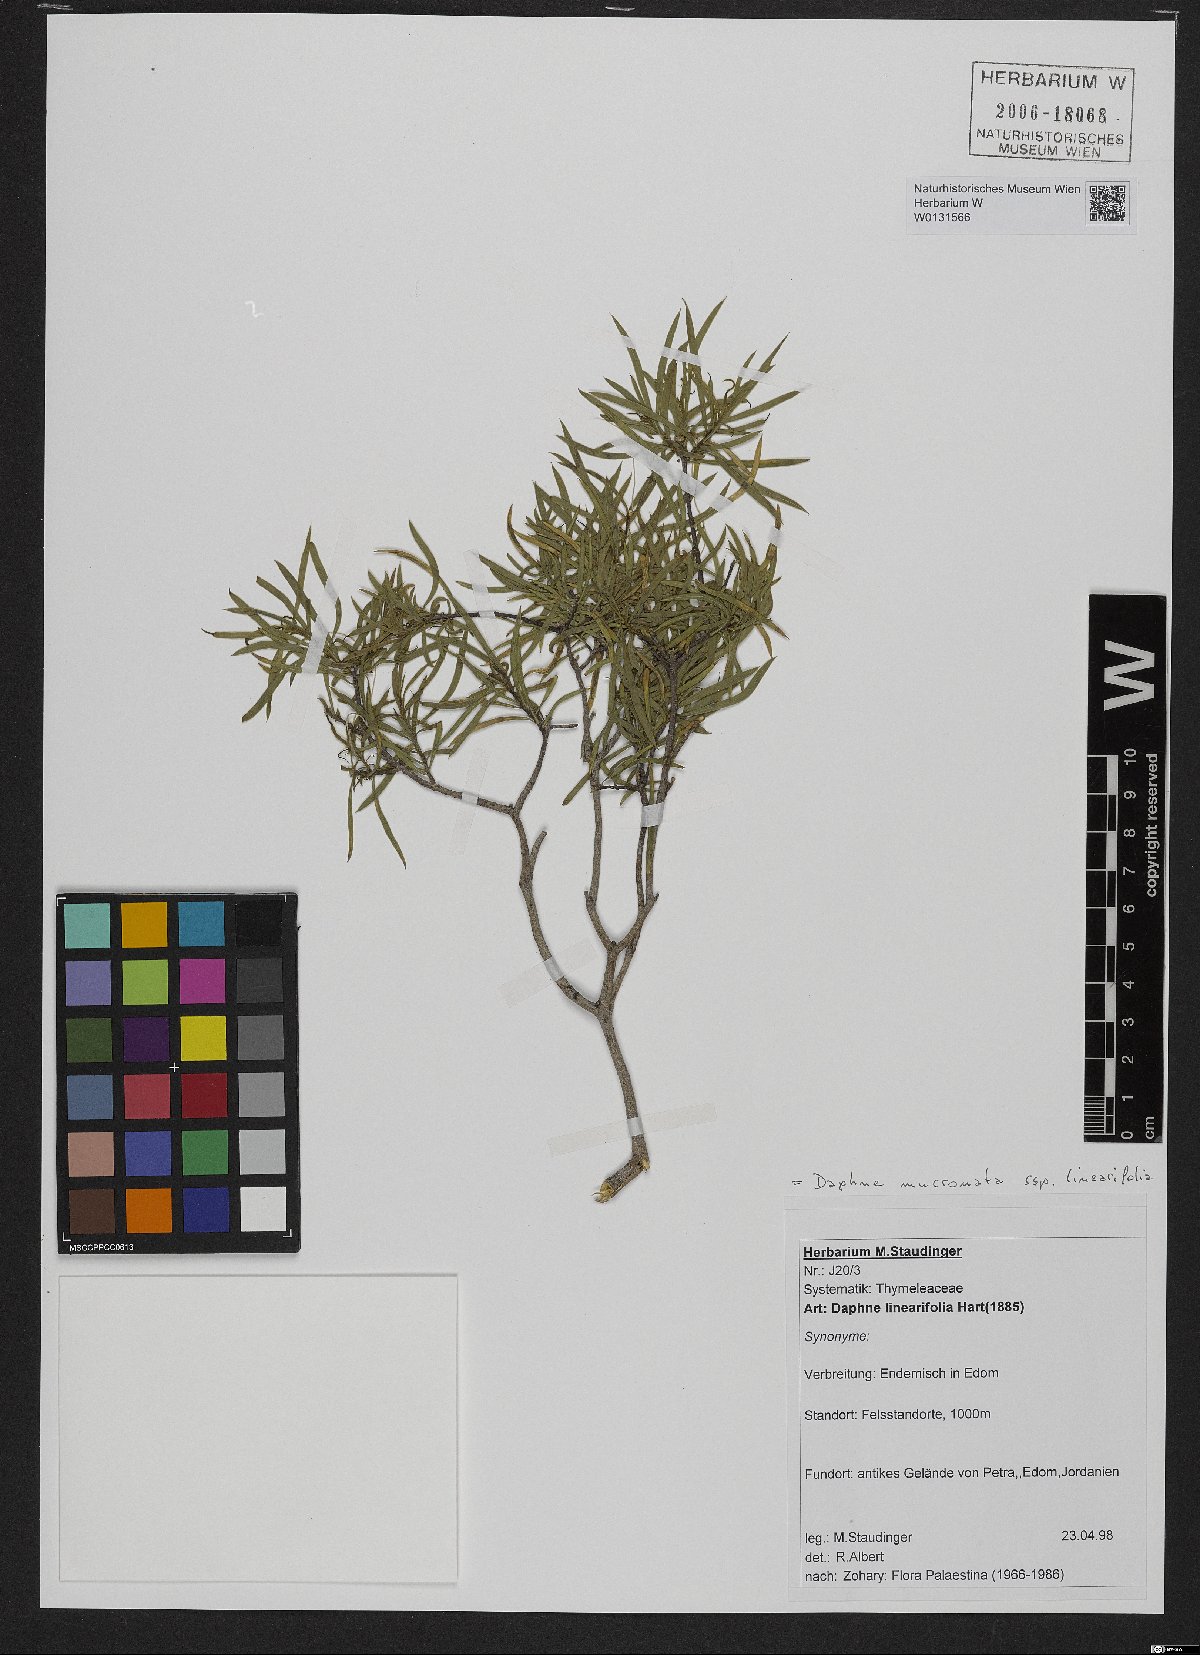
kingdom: Plantae
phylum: Tracheophyta
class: Magnoliopsida
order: Malvales
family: Thymelaeaceae
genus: Daphne
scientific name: Daphne mucronata
